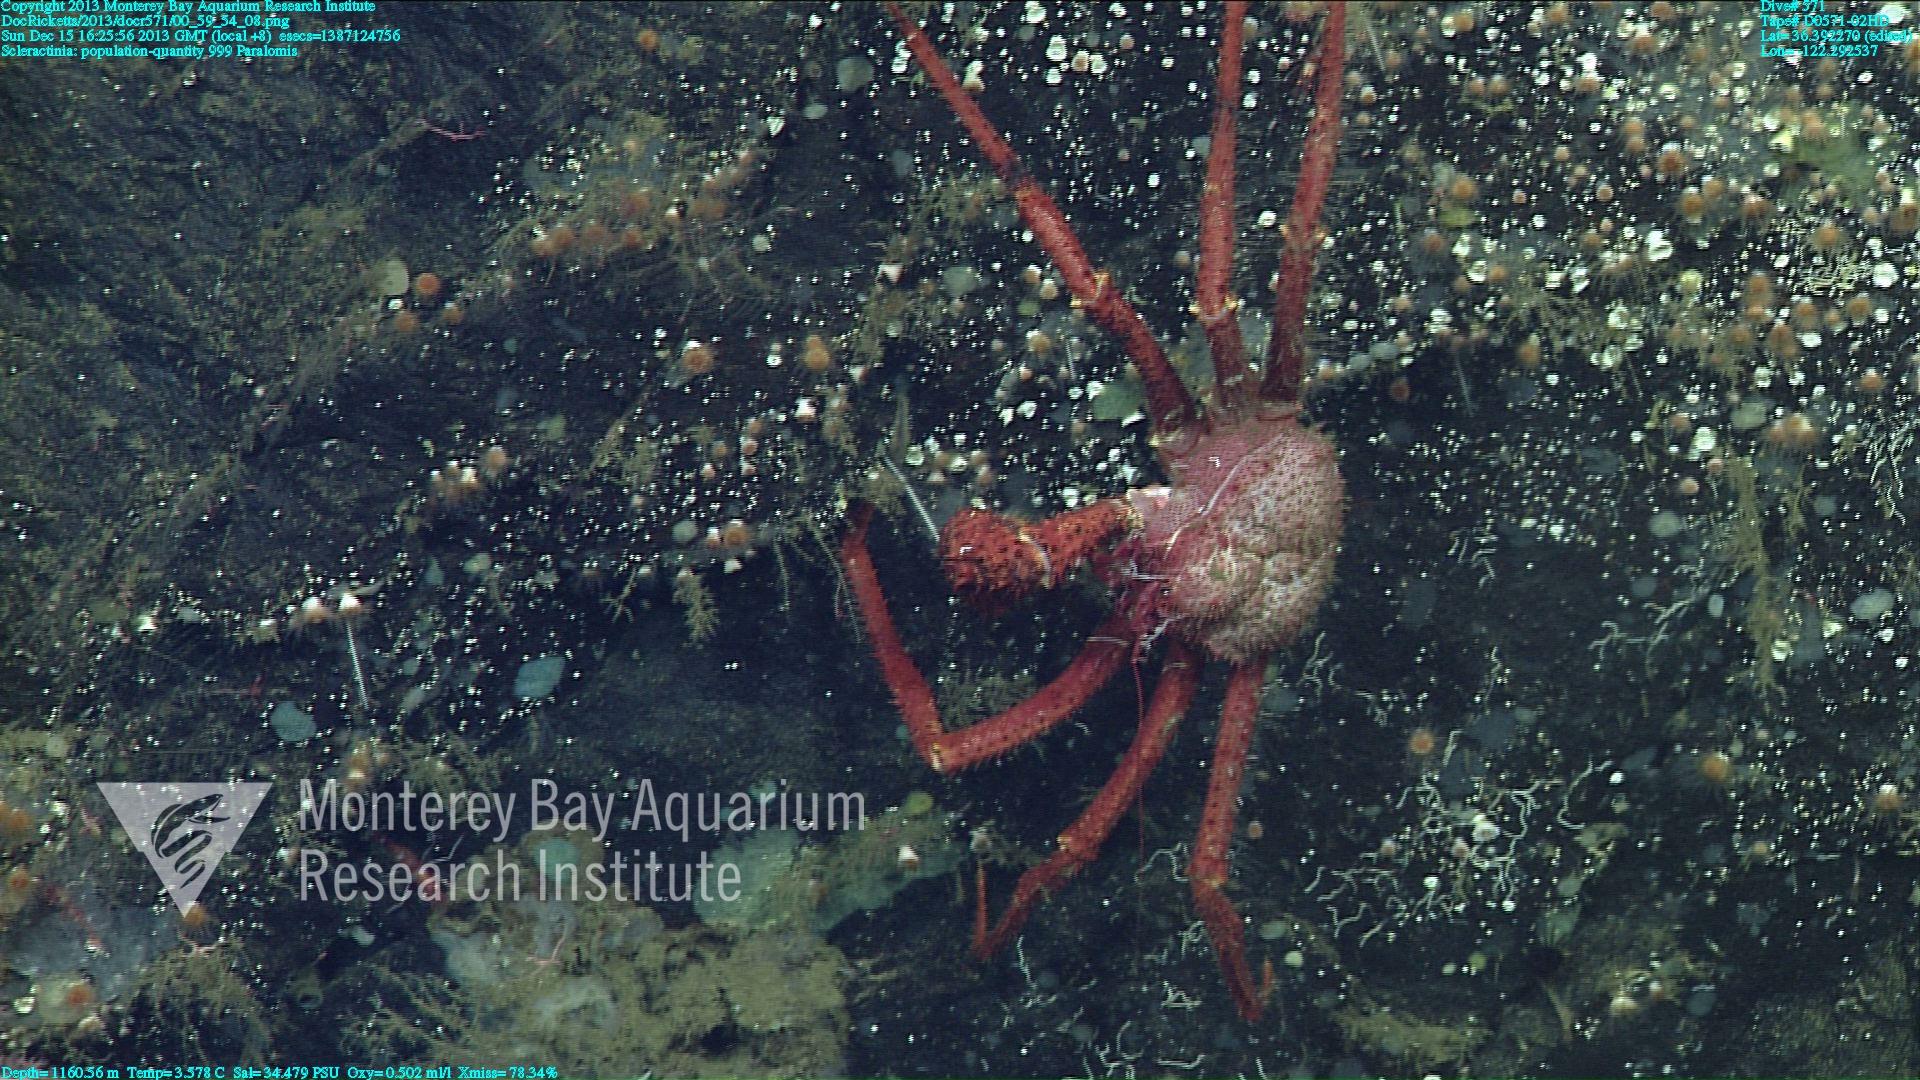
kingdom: Animalia
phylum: Cnidaria
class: Anthozoa
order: Scleractinia
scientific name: Scleractinia
